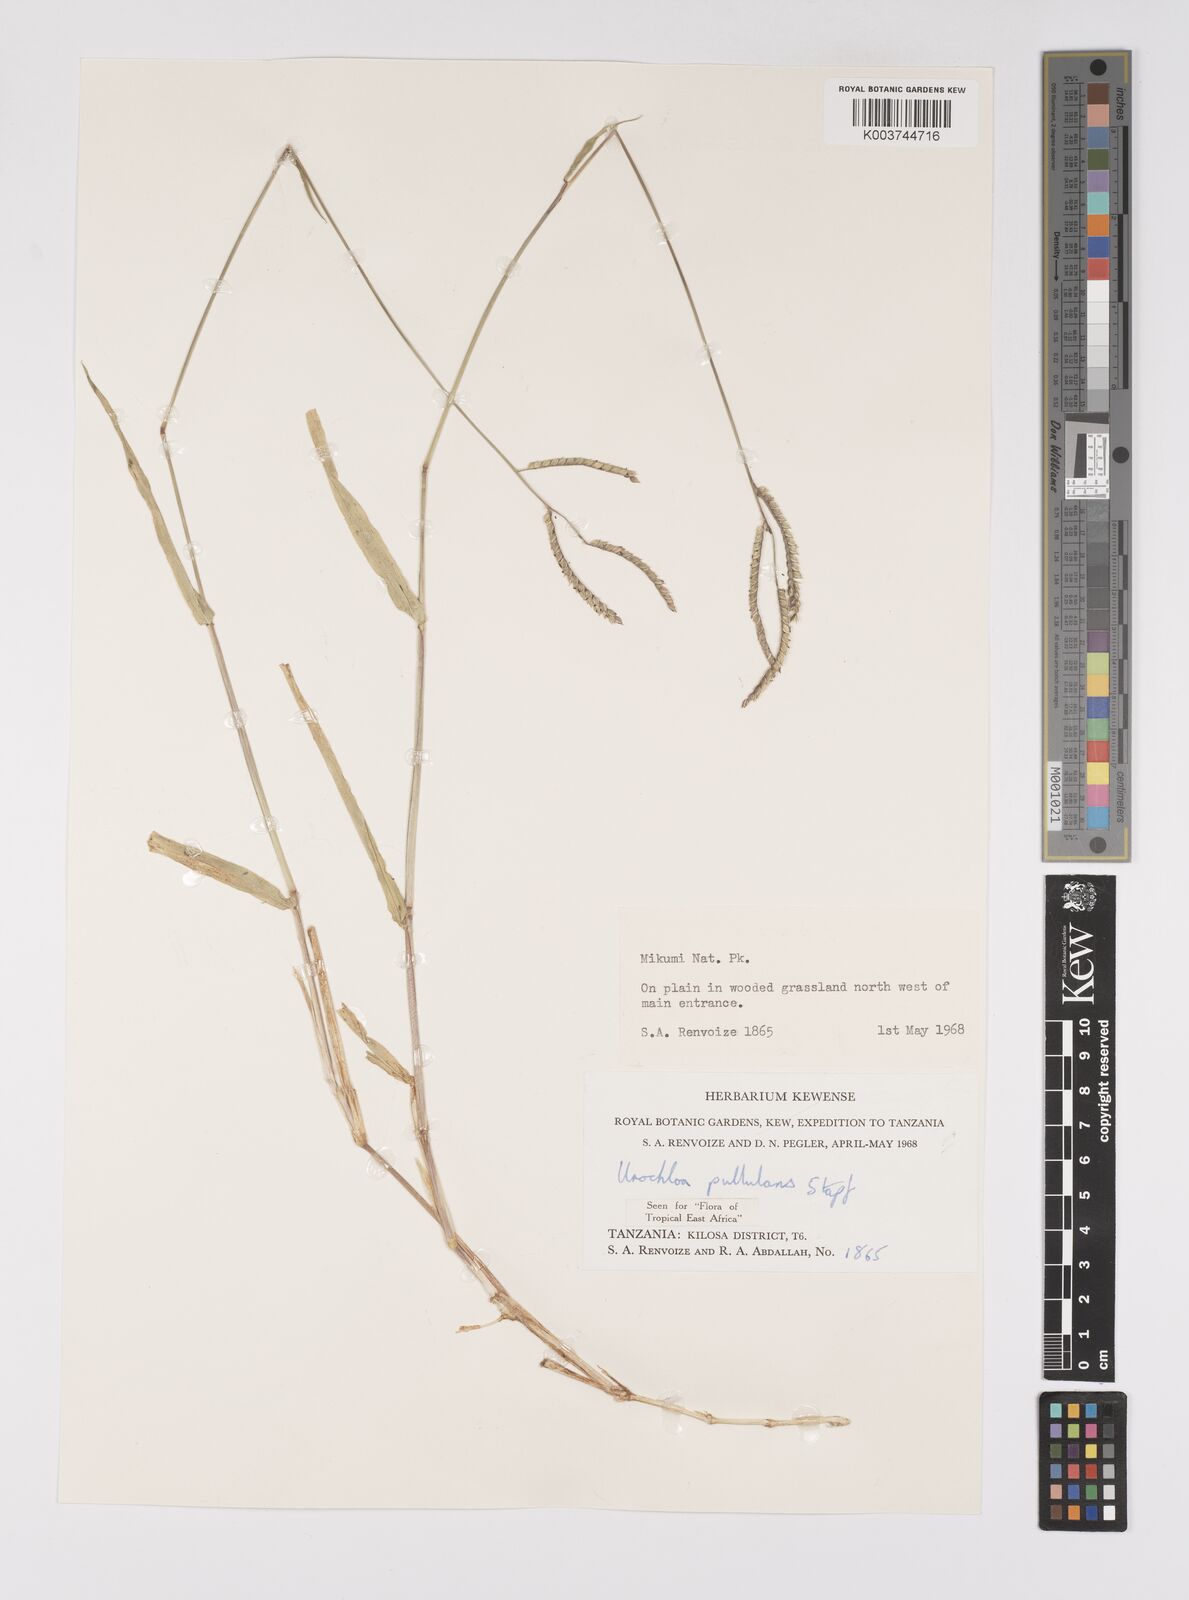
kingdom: Plantae
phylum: Tracheophyta
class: Liliopsida
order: Poales
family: Poaceae
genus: Urochloa
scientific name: Urochloa trichopus
